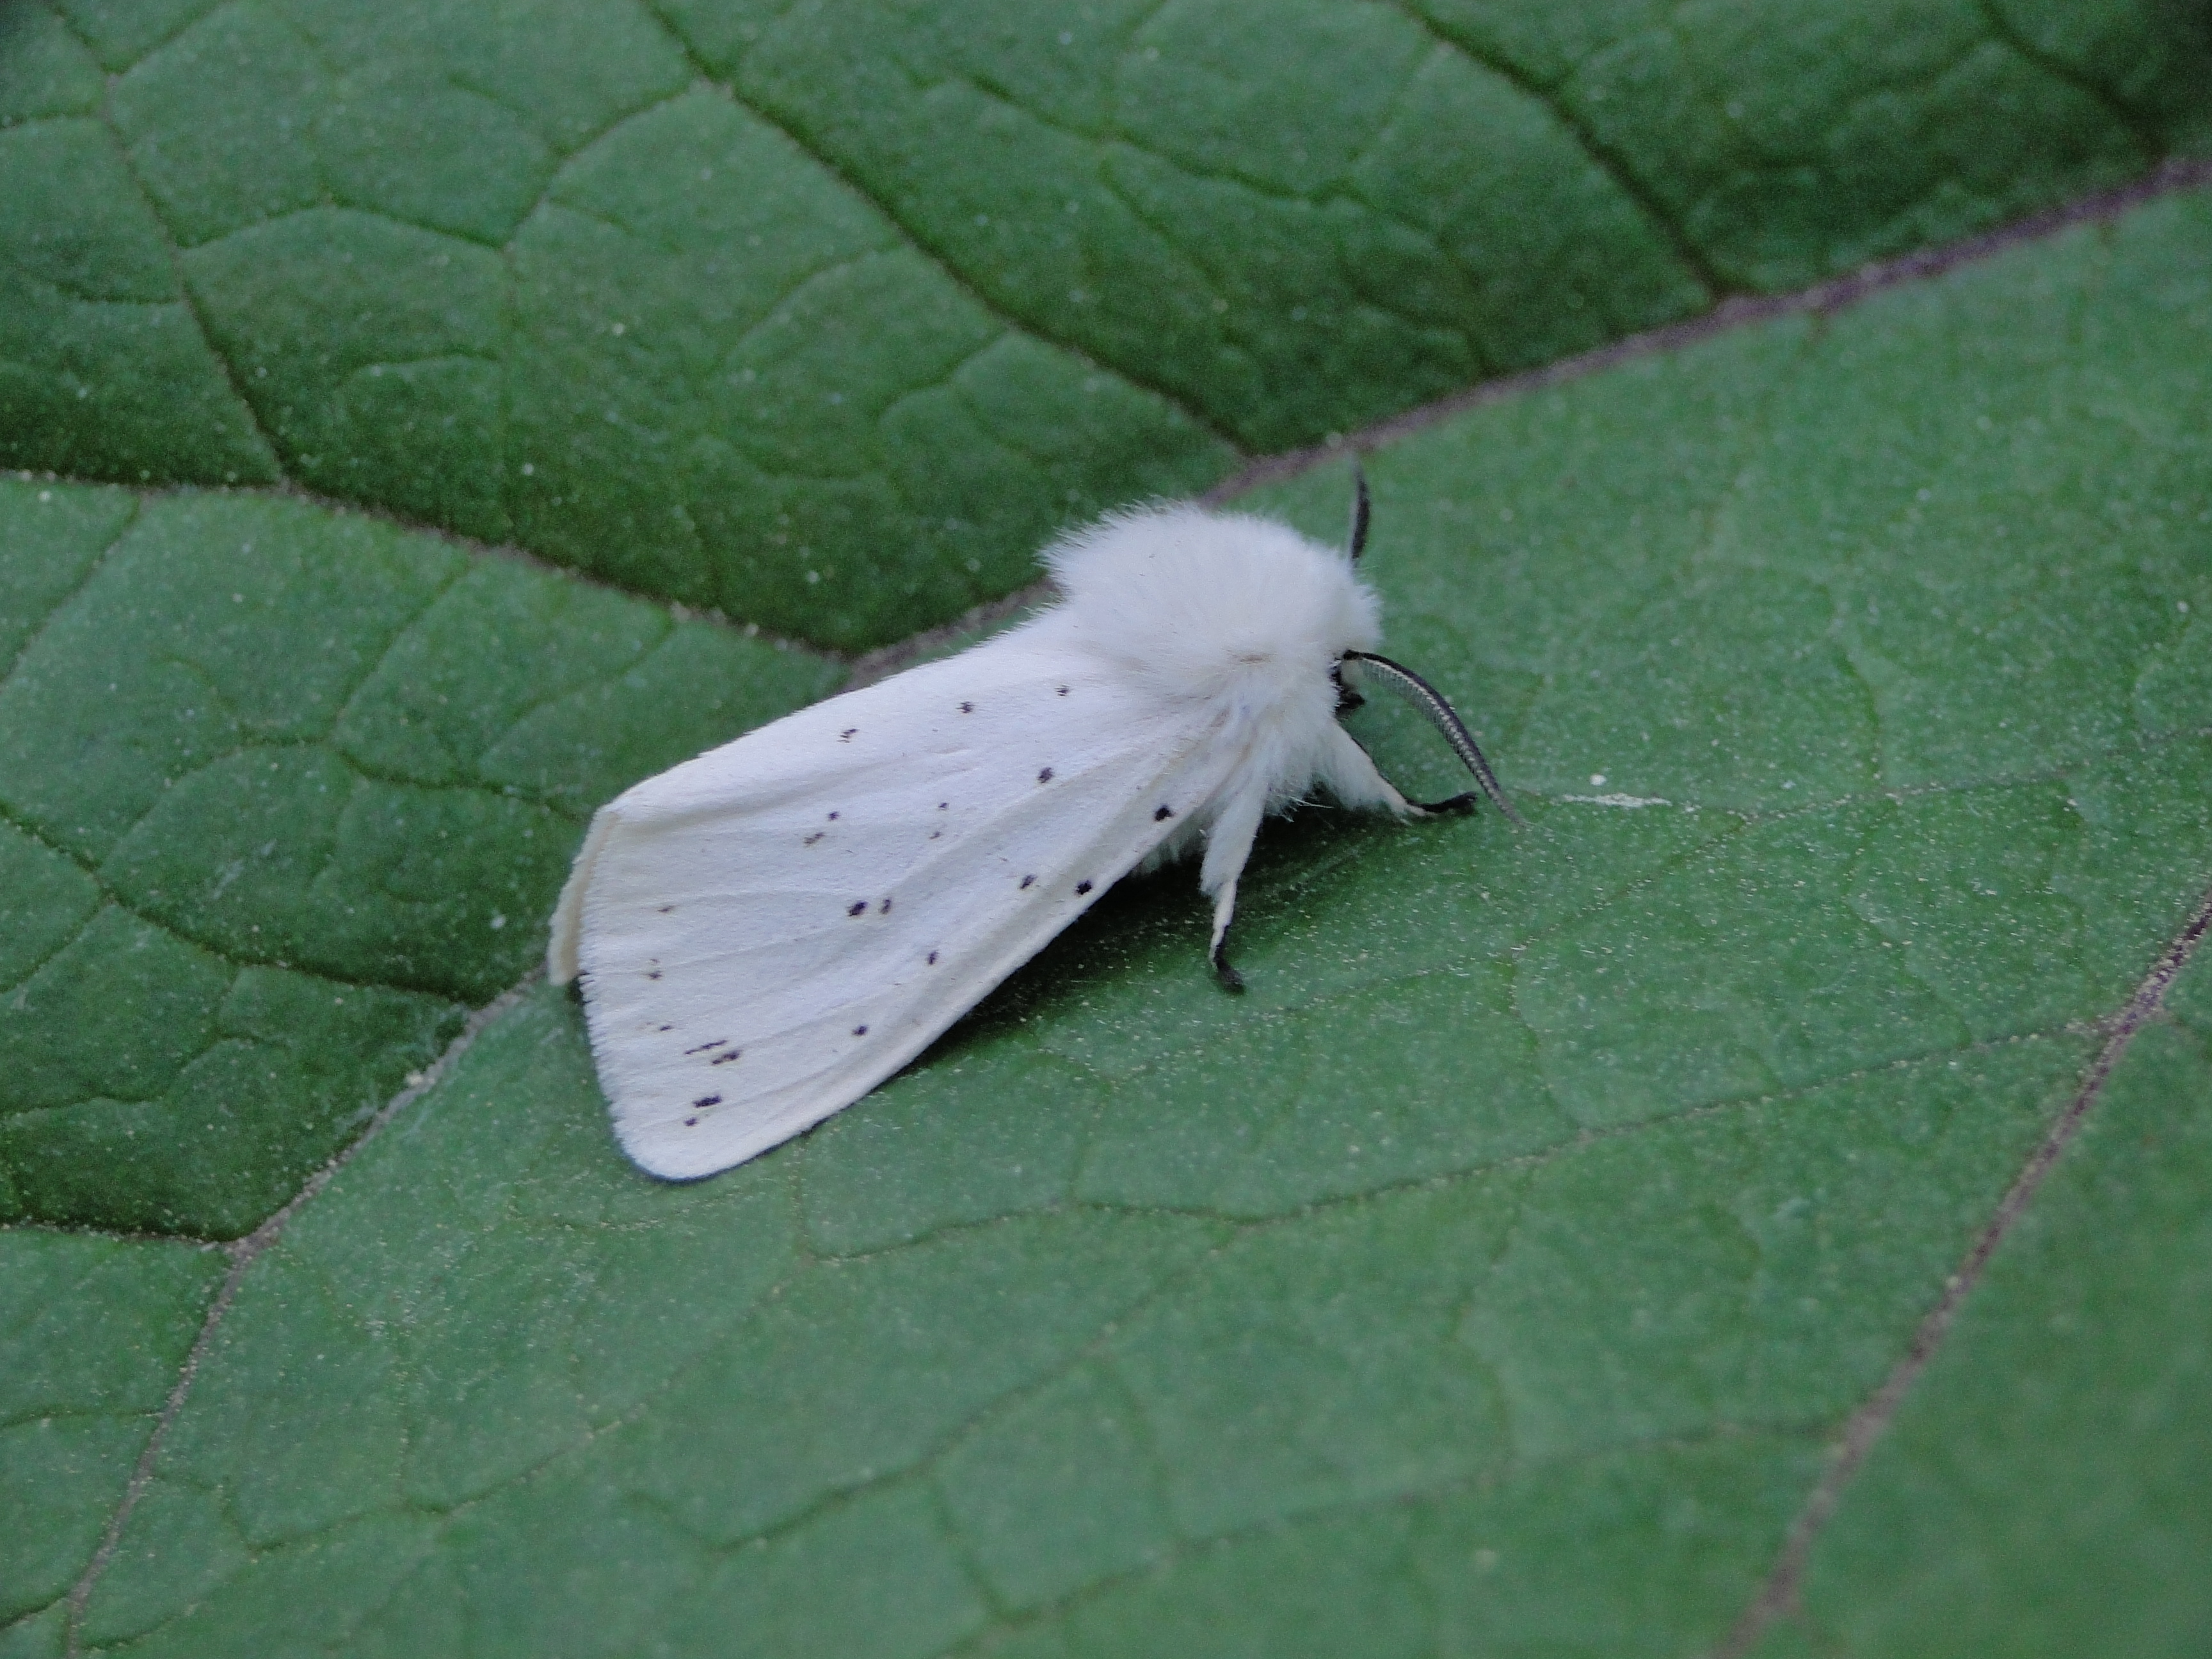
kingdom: Animalia
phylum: Arthropoda
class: Insecta
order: Lepidoptera
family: Erebidae
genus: Spilosoma
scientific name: Spilosoma lubricipeda
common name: White ermine
